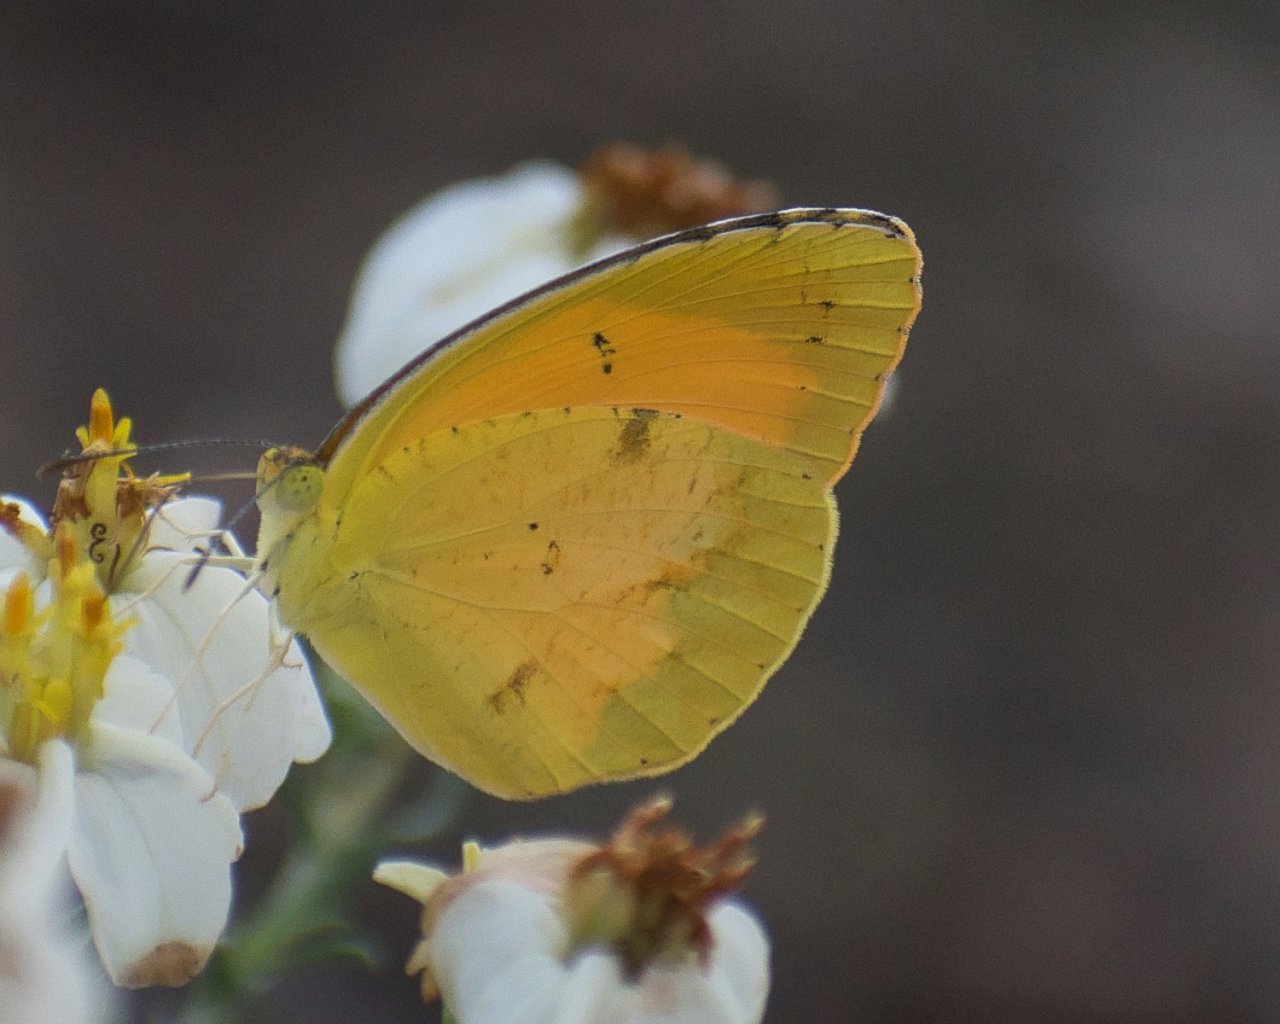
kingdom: Animalia
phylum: Arthropoda
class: Insecta
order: Lepidoptera
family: Pieridae
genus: Abaeis
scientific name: Abaeis nicippe
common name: Sleepy Orange
